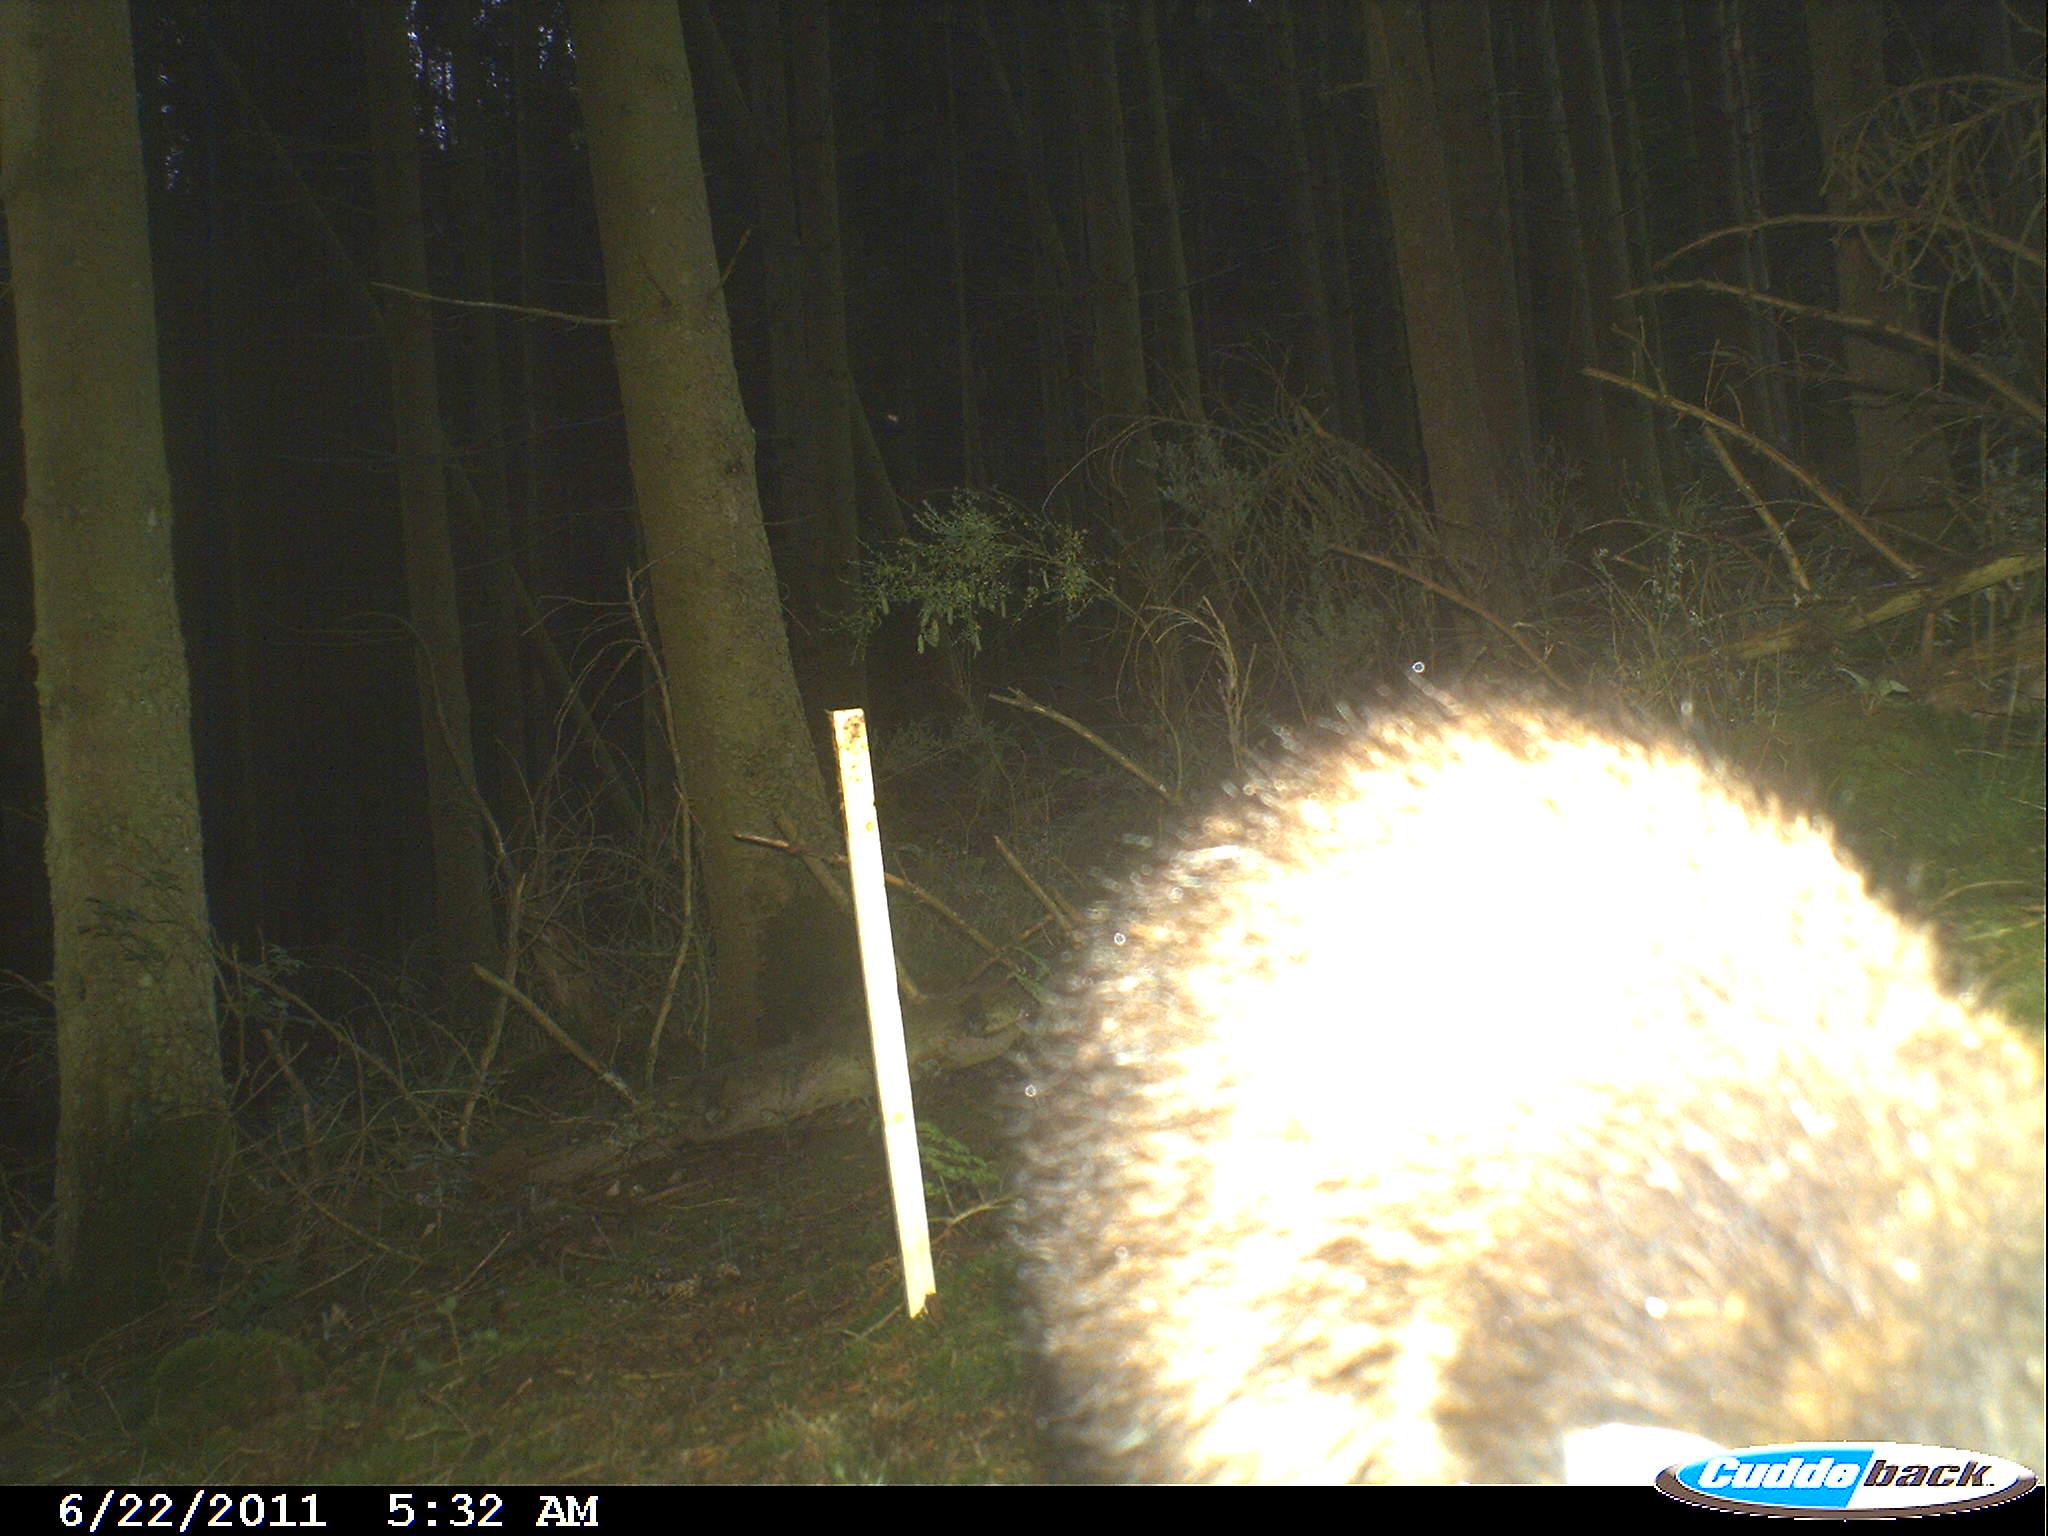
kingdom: Animalia
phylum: Chordata
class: Mammalia
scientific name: Mammalia
